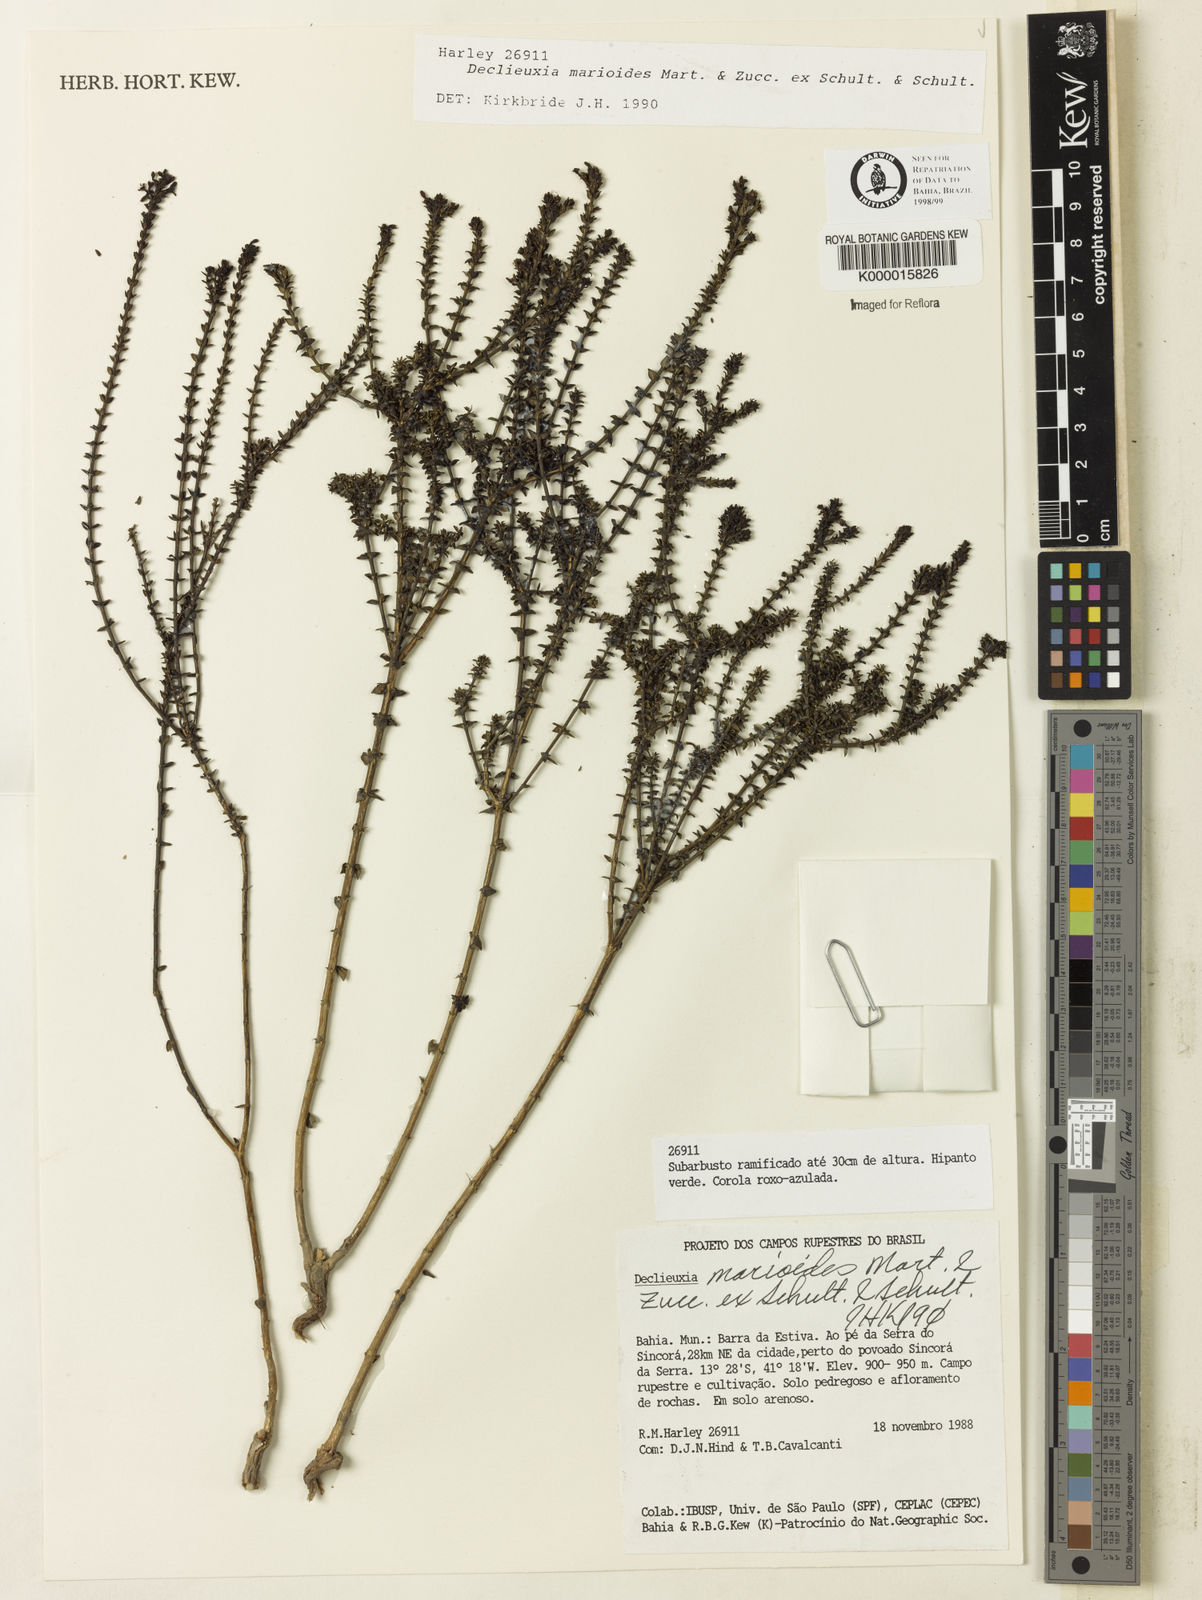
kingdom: Plantae
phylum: Tracheophyta
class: Magnoliopsida
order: Gentianales
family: Rubiaceae
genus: Declieuxia
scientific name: Declieuxia
